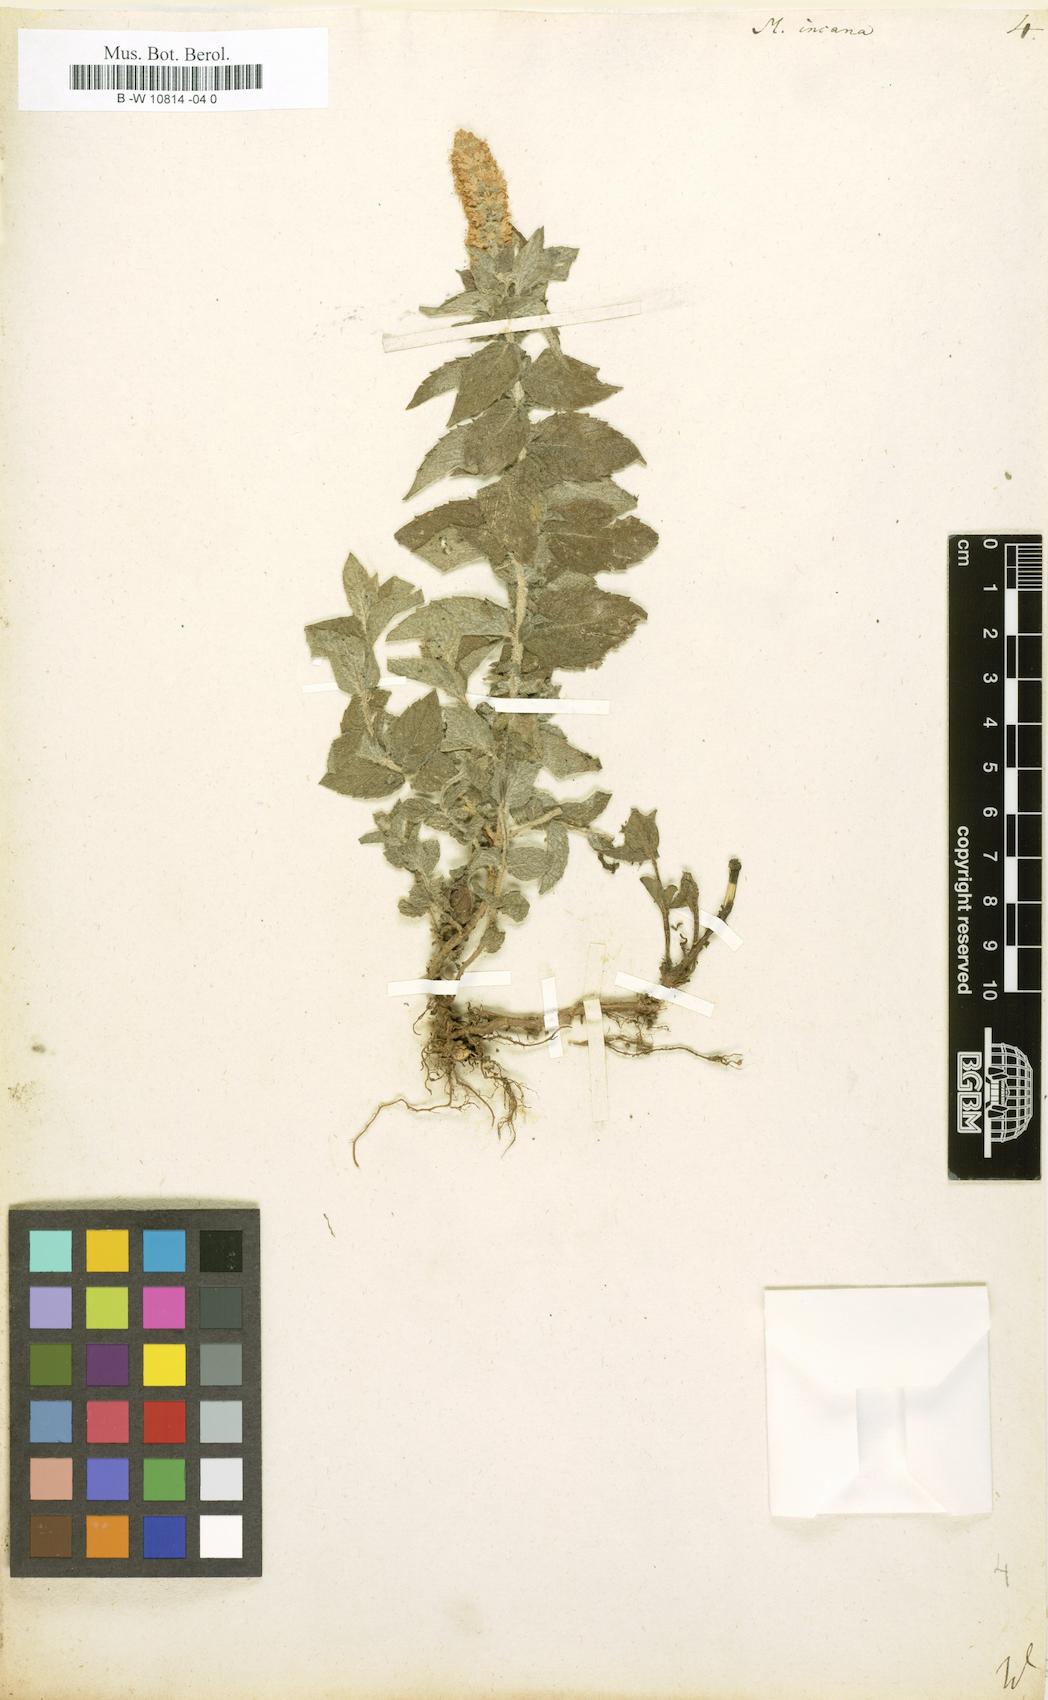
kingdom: Plantae
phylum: Tracheophyta
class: Magnoliopsida
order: Lamiales
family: Lamiaceae
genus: Mentha
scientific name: Mentha longifolia
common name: Horse mint
